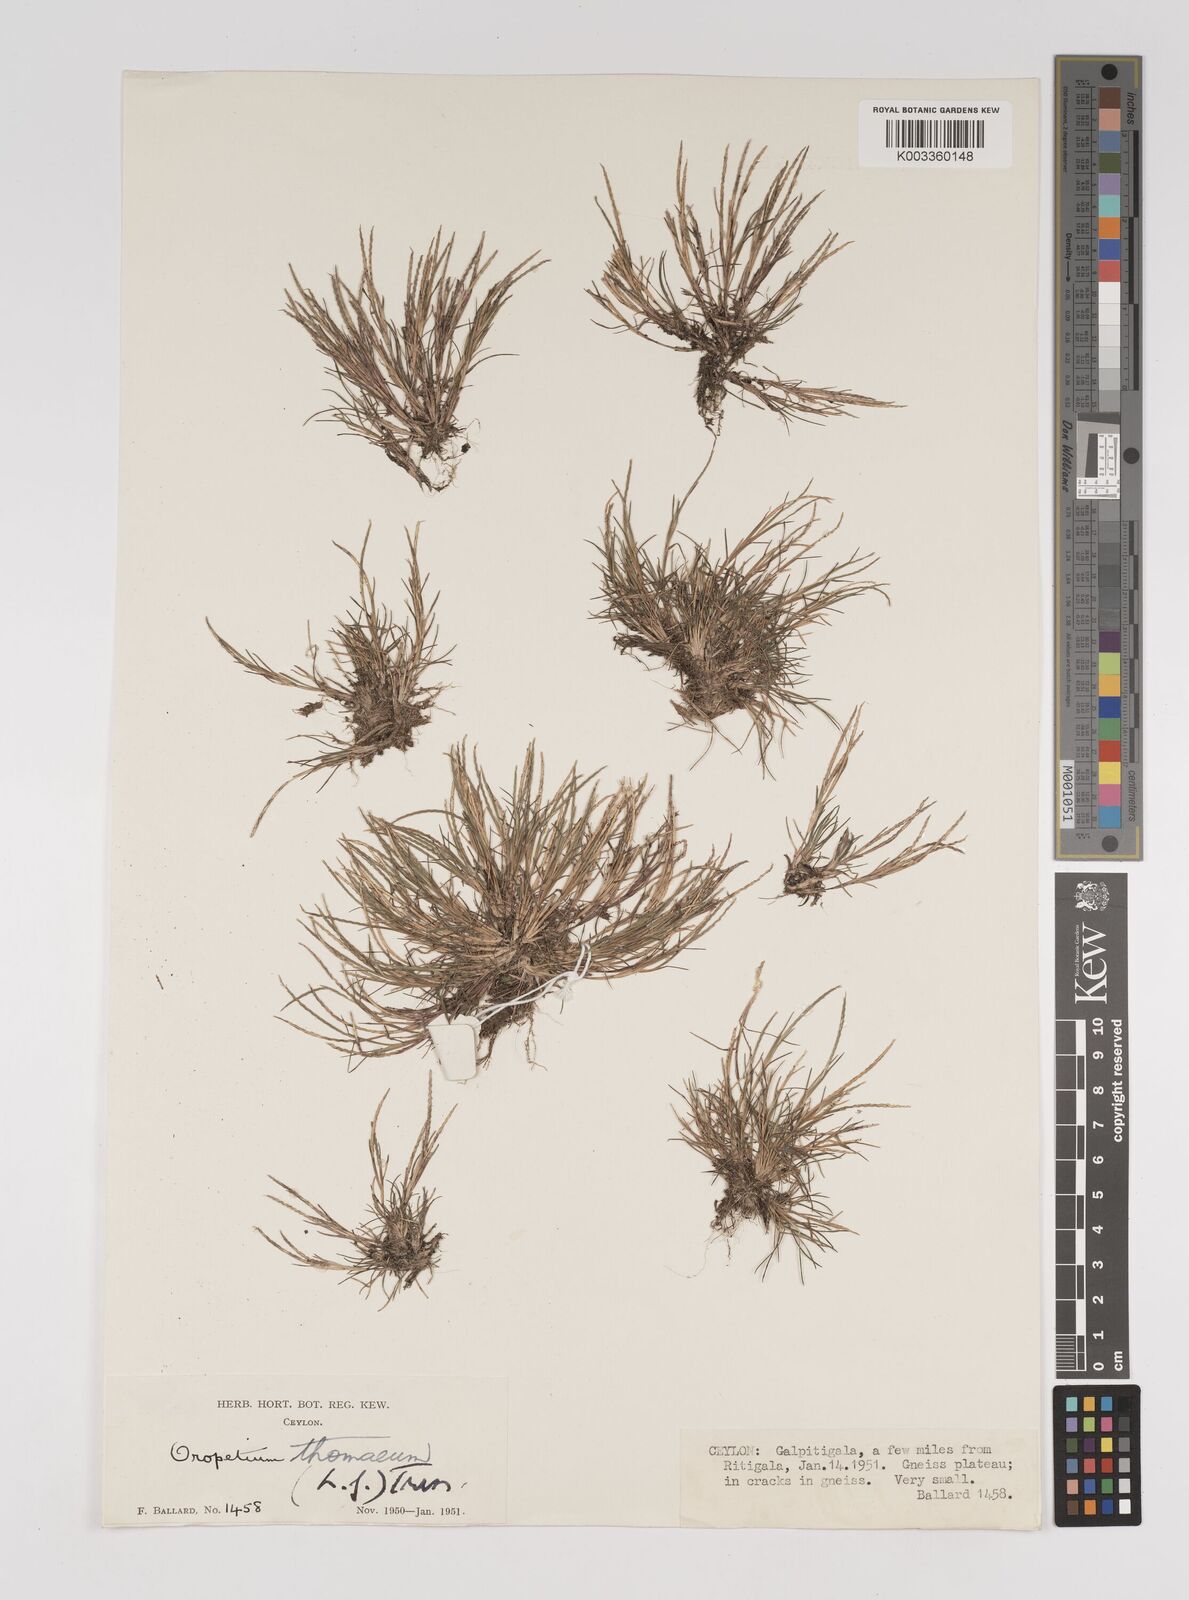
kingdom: Plantae
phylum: Tracheophyta
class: Liliopsida
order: Poales
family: Poaceae
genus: Oropetium
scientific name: Oropetium thomaeum
